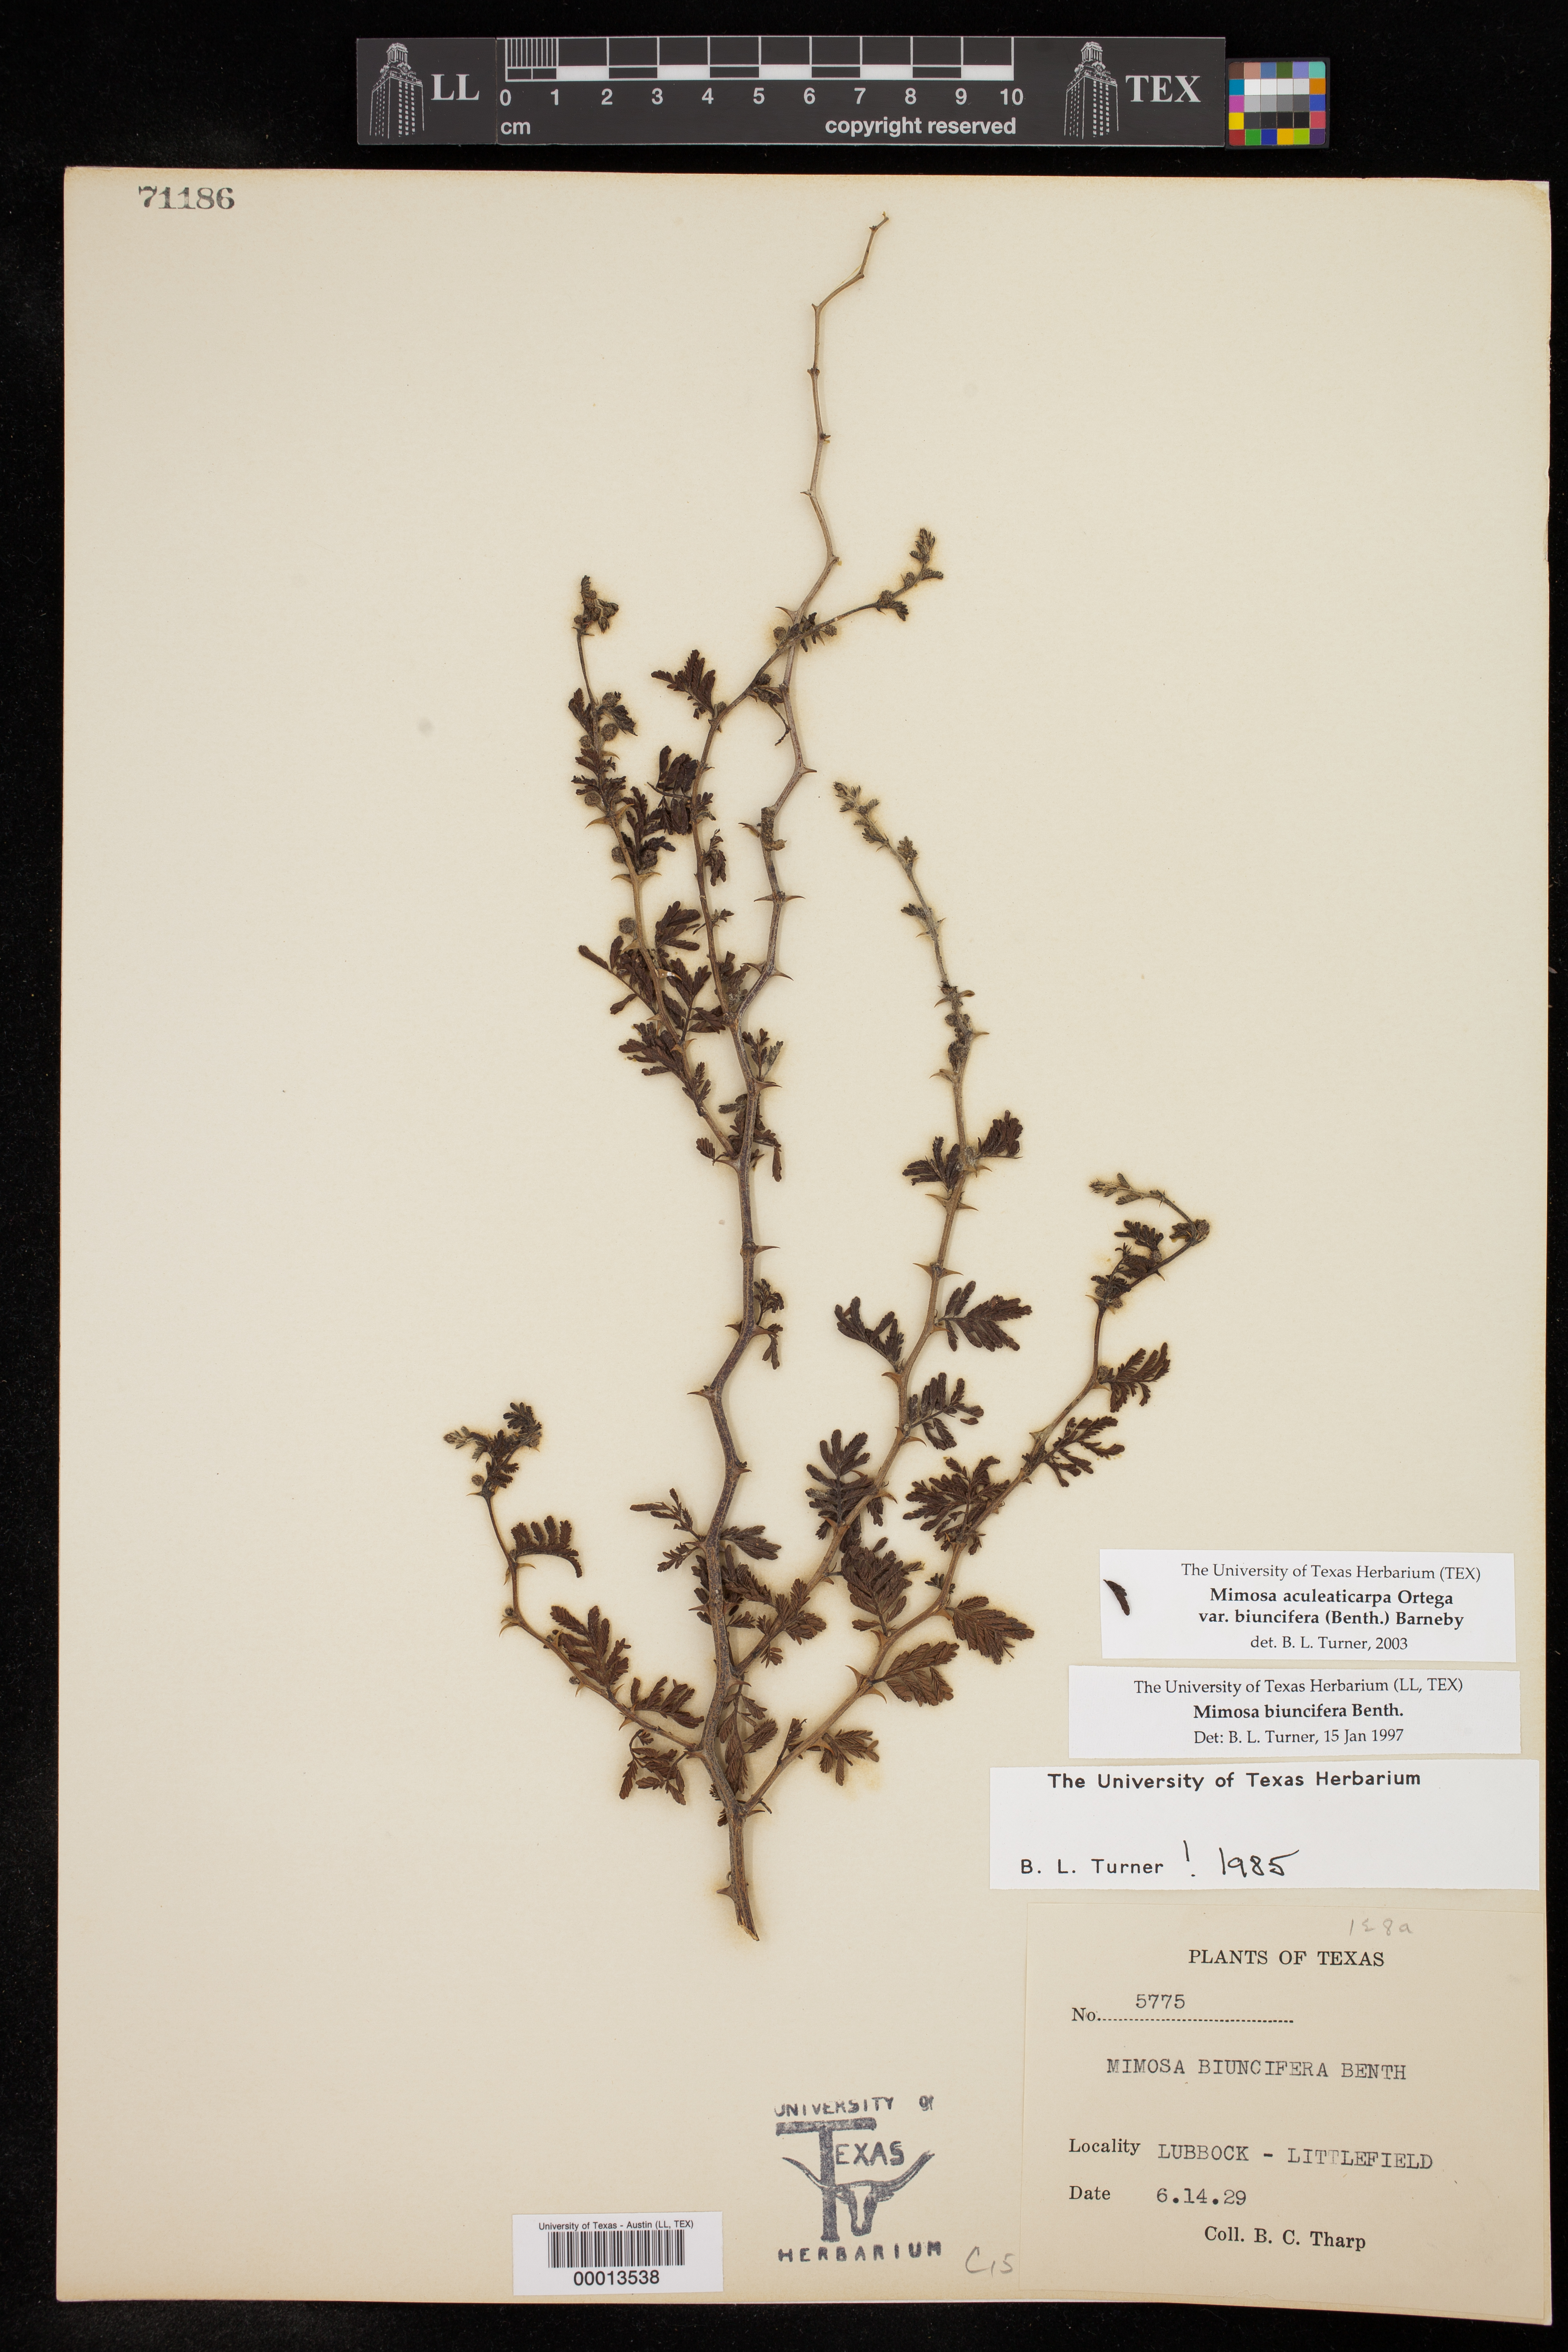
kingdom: Plantae
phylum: Tracheophyta
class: Magnoliopsida
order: Fabales
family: Fabaceae
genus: Mimosa
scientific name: Mimosa biuncifera
